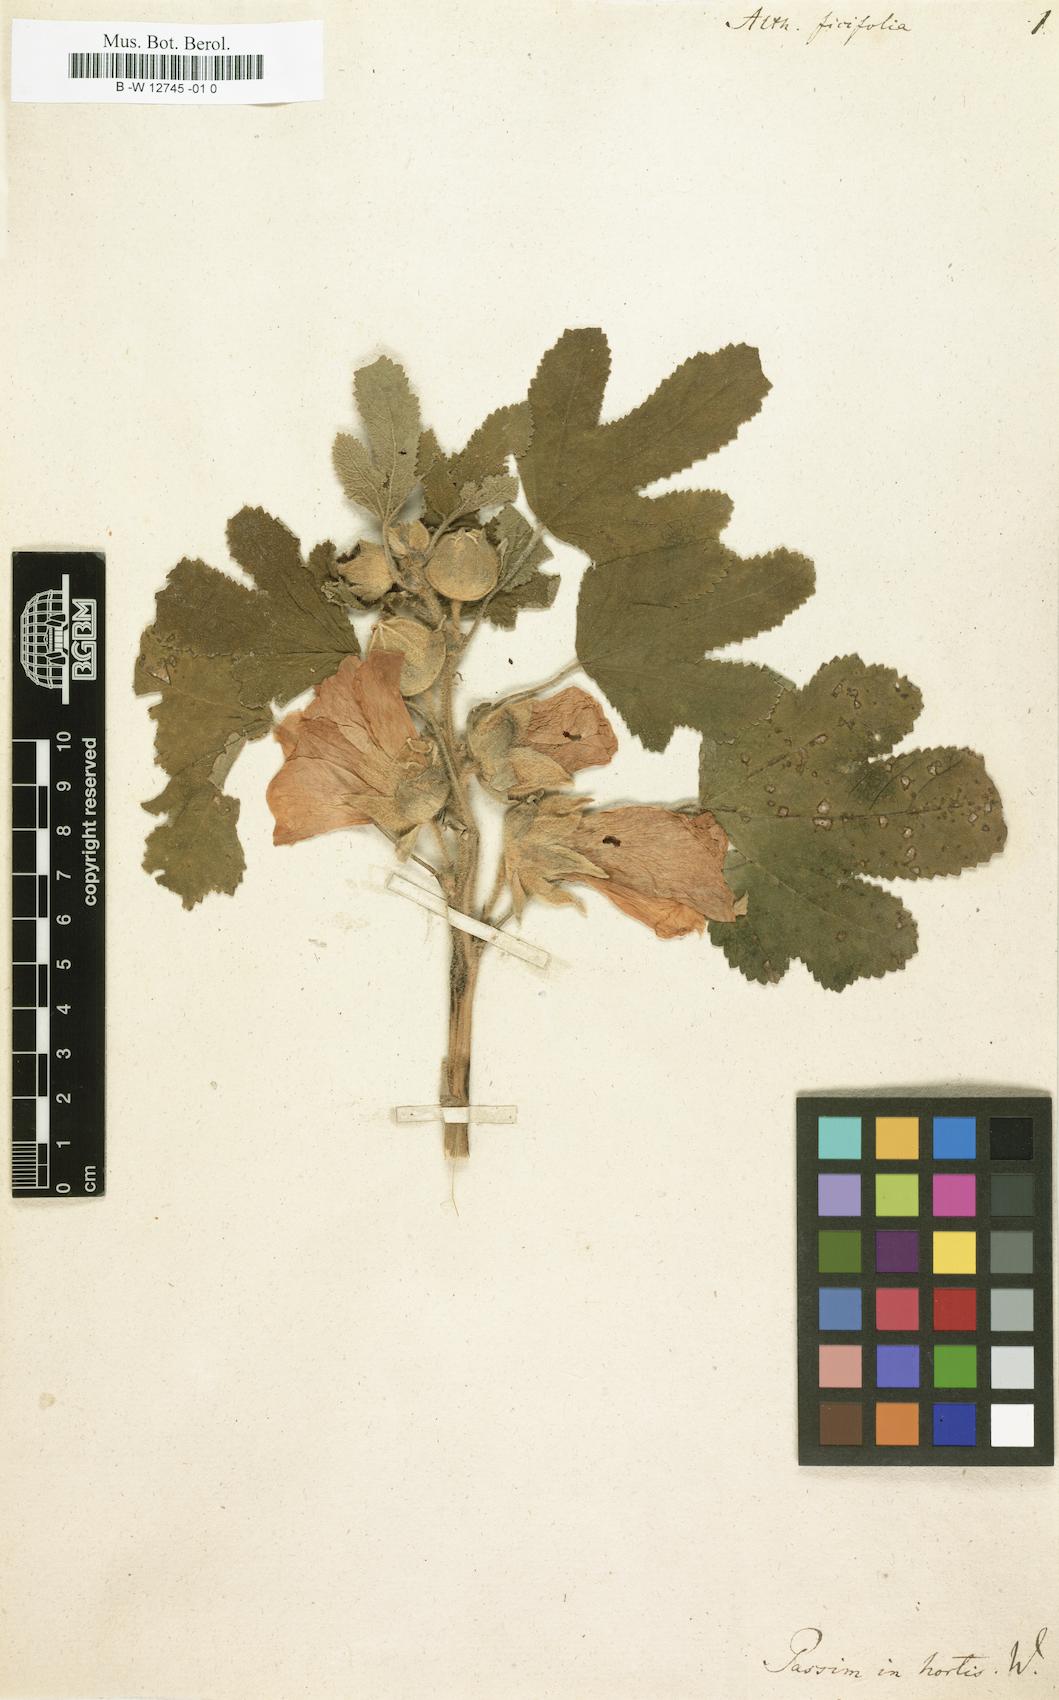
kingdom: Plantae
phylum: Tracheophyta
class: Magnoliopsida
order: Malvales
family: Malvaceae
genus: Alcea
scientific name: Alcea rosea
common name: Hollyhock
